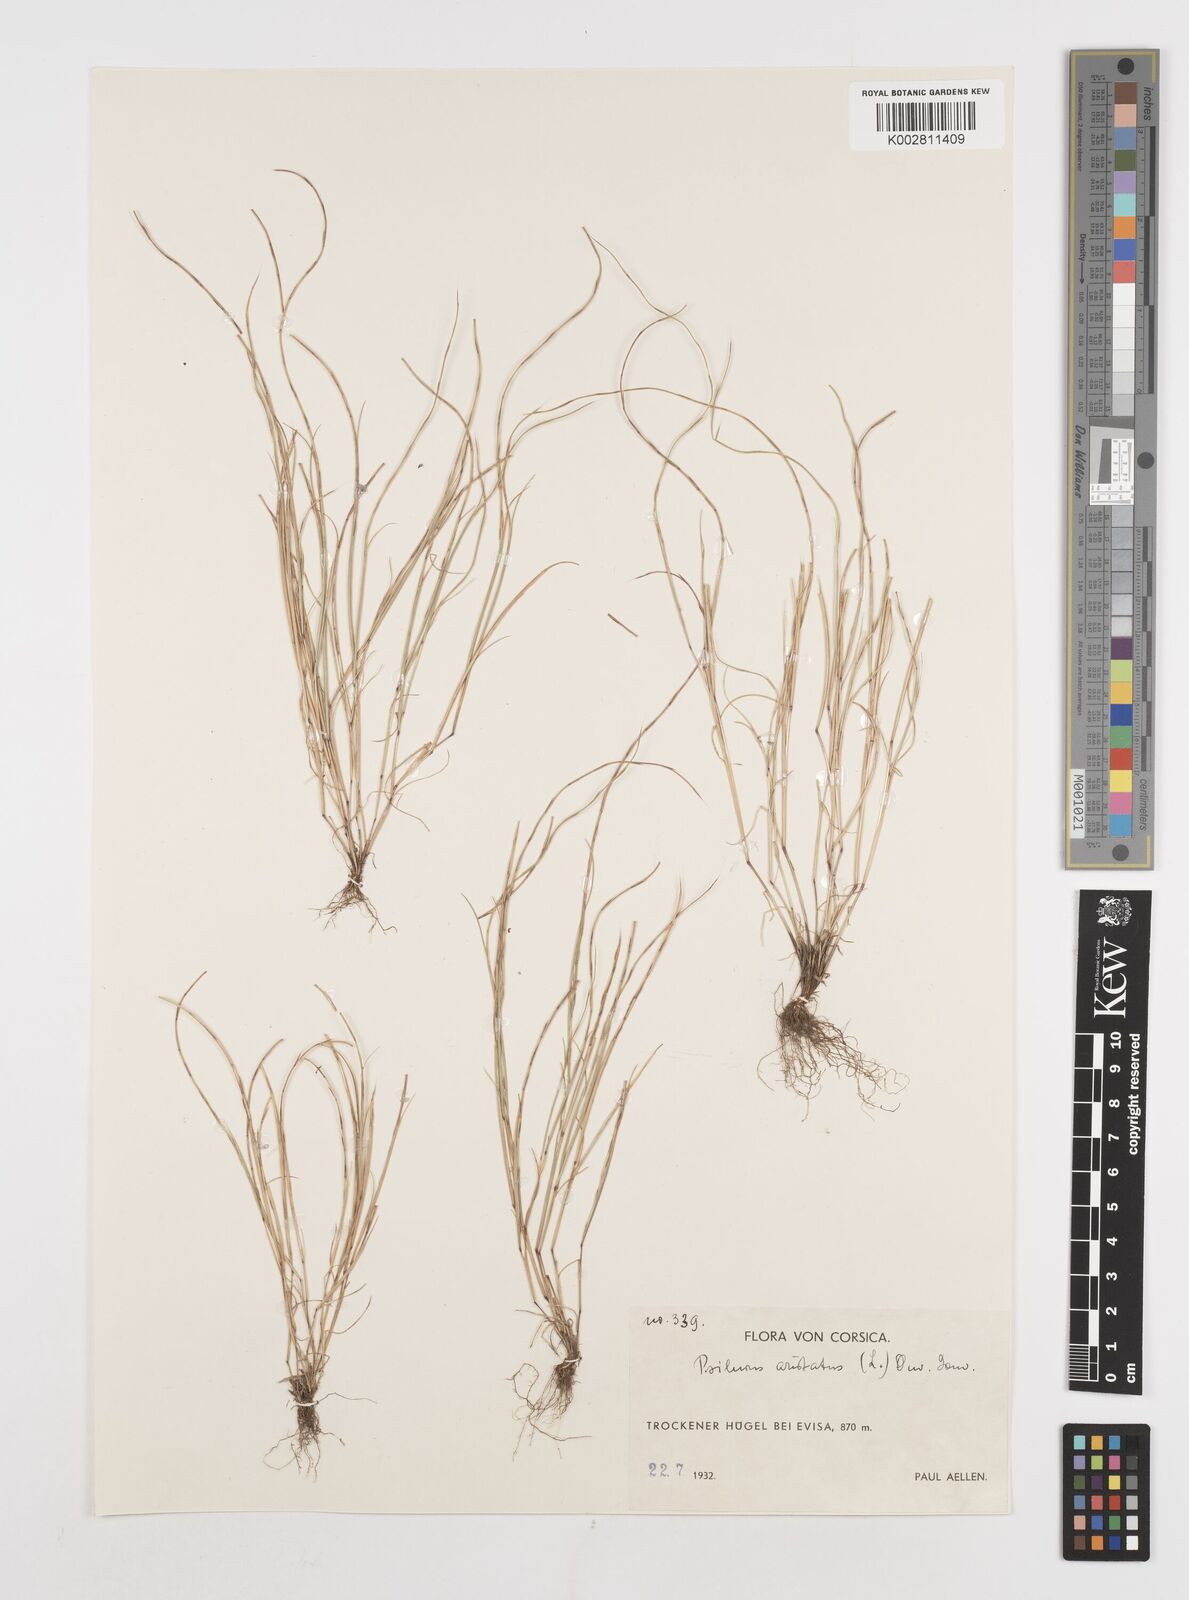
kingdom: Plantae
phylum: Tracheophyta
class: Liliopsida
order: Poales
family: Poaceae
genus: Festuca
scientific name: Festuca incurva
